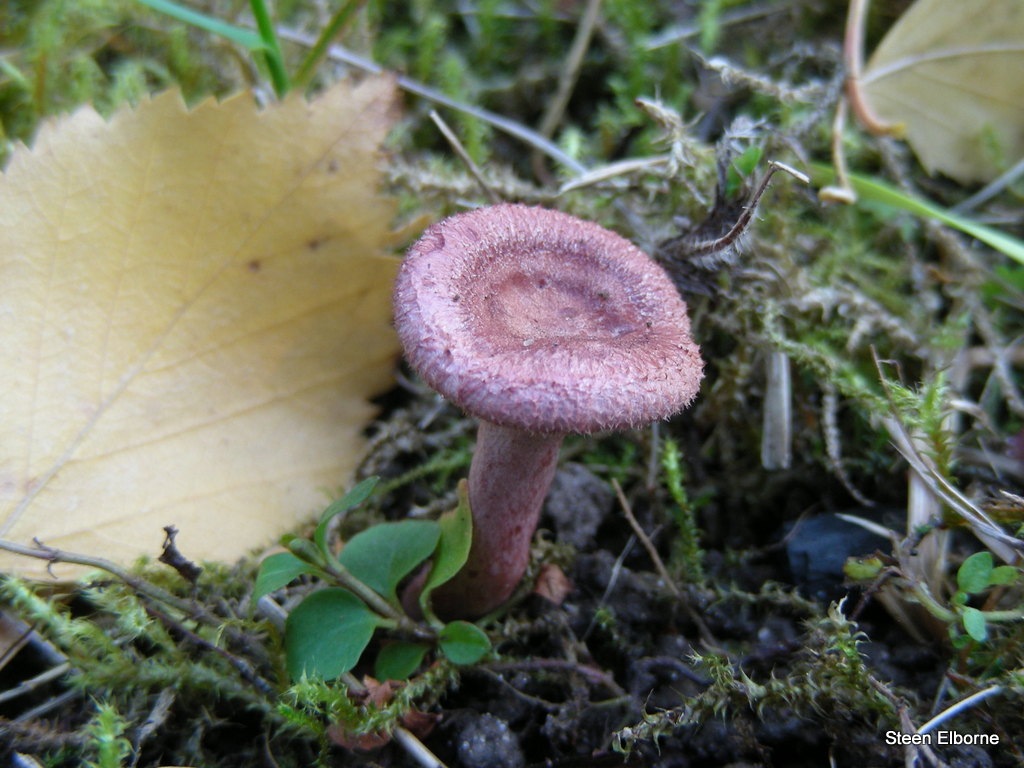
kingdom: Fungi
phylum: Basidiomycota
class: Agaricomycetes
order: Russulales
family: Russulaceae
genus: Lactarius
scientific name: Lactarius spinosulus
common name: småskællet mælkehat
